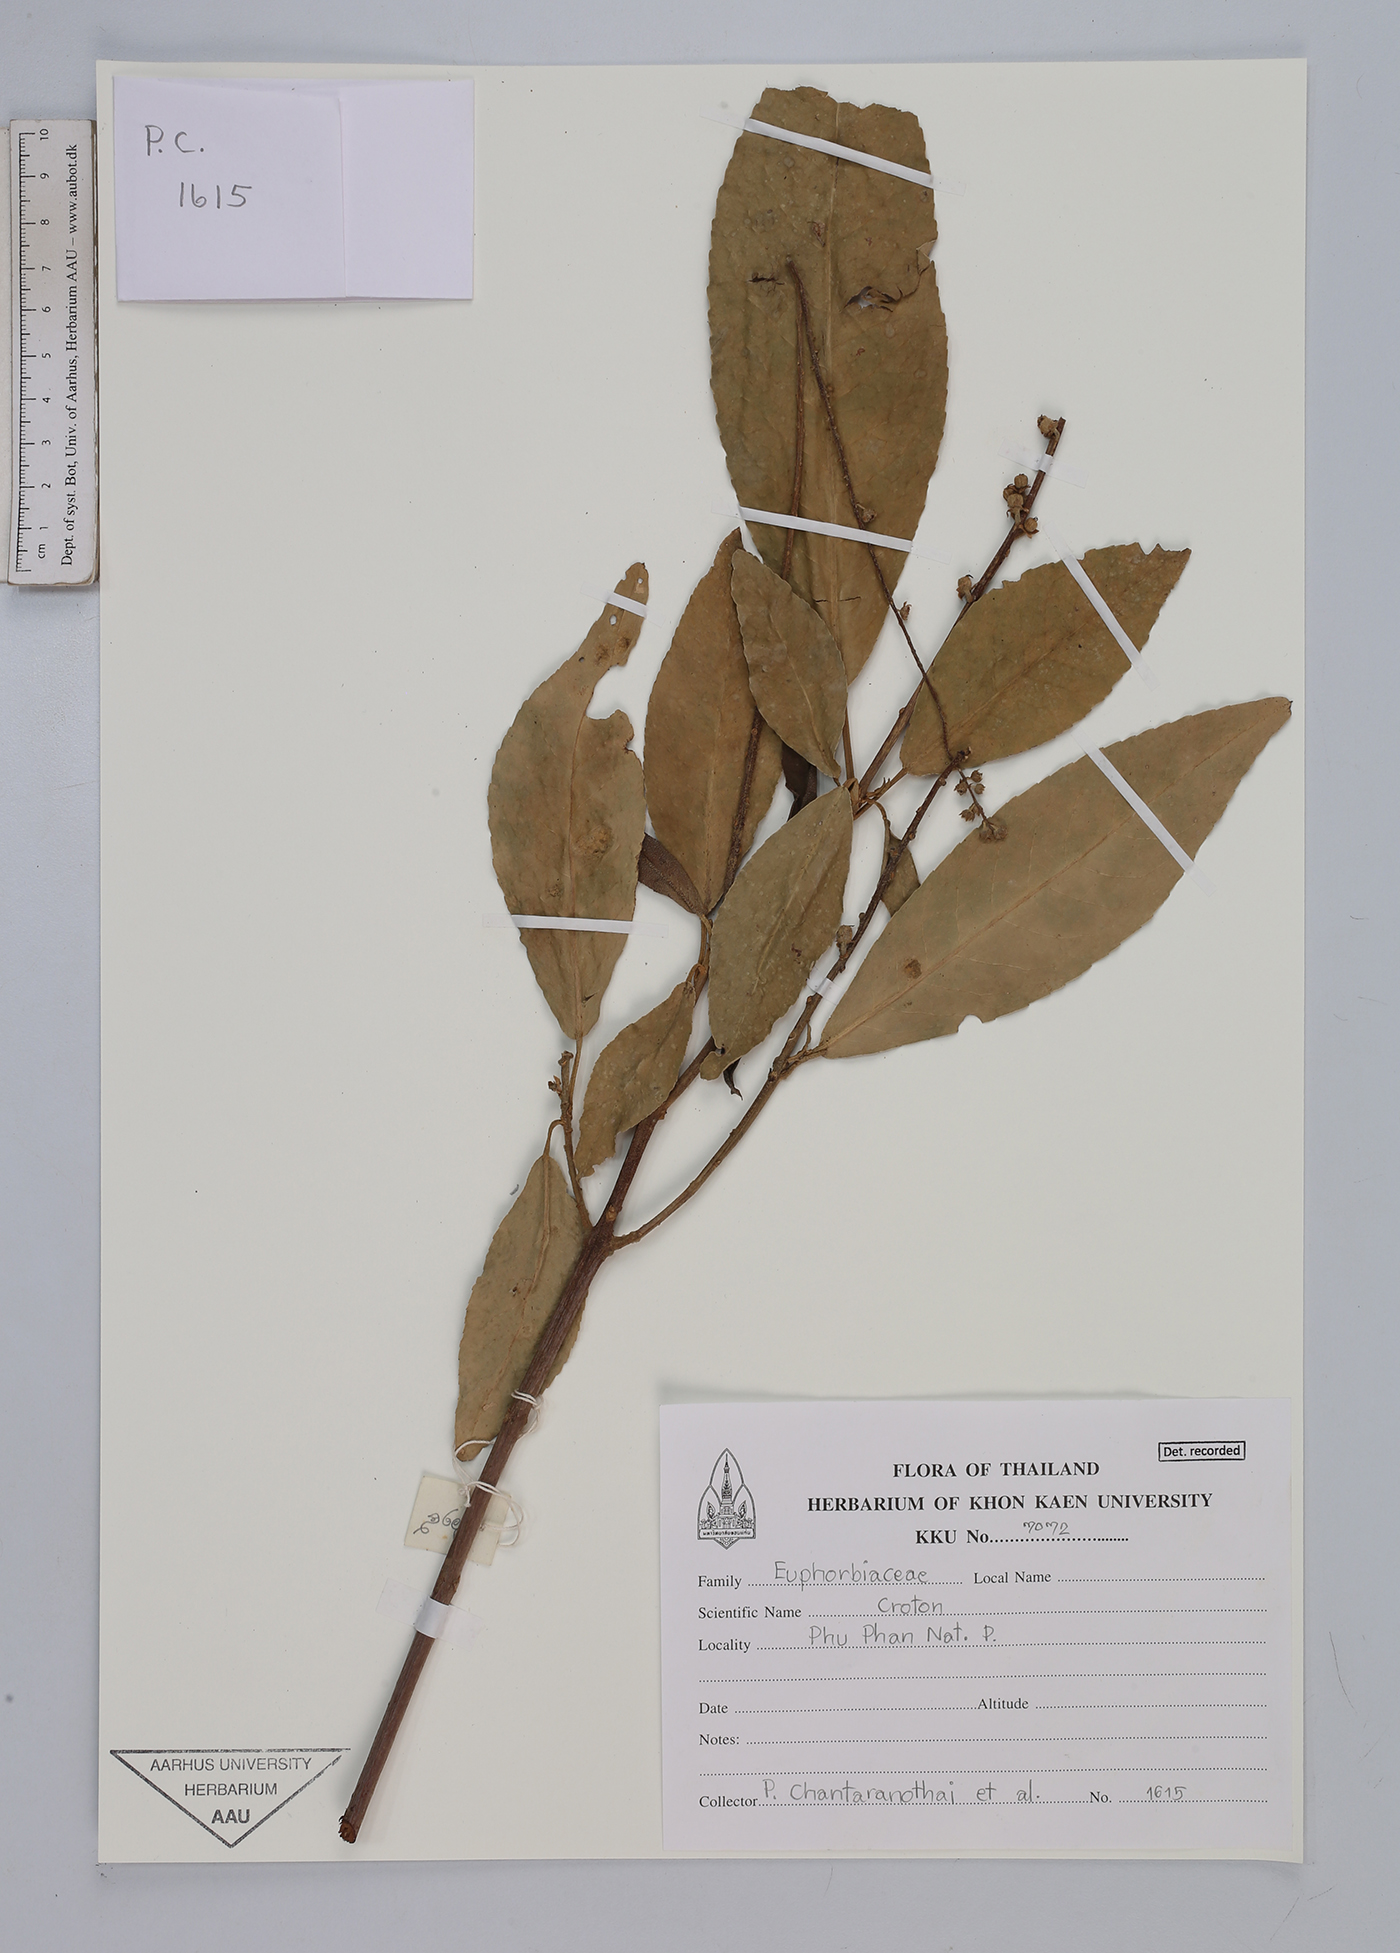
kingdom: Plantae
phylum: Tracheophyta
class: Magnoliopsida
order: Malpighiales
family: Euphorbiaceae
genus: Croton
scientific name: Croton
